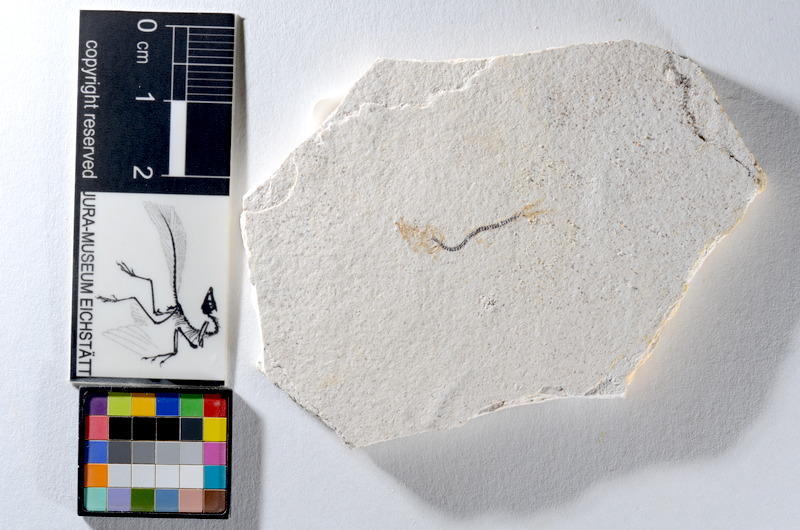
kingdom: Animalia
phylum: Chordata
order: Salmoniformes
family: Orthogonikleithridae
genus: Orthogonikleithrus
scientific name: Orthogonikleithrus hoelli
